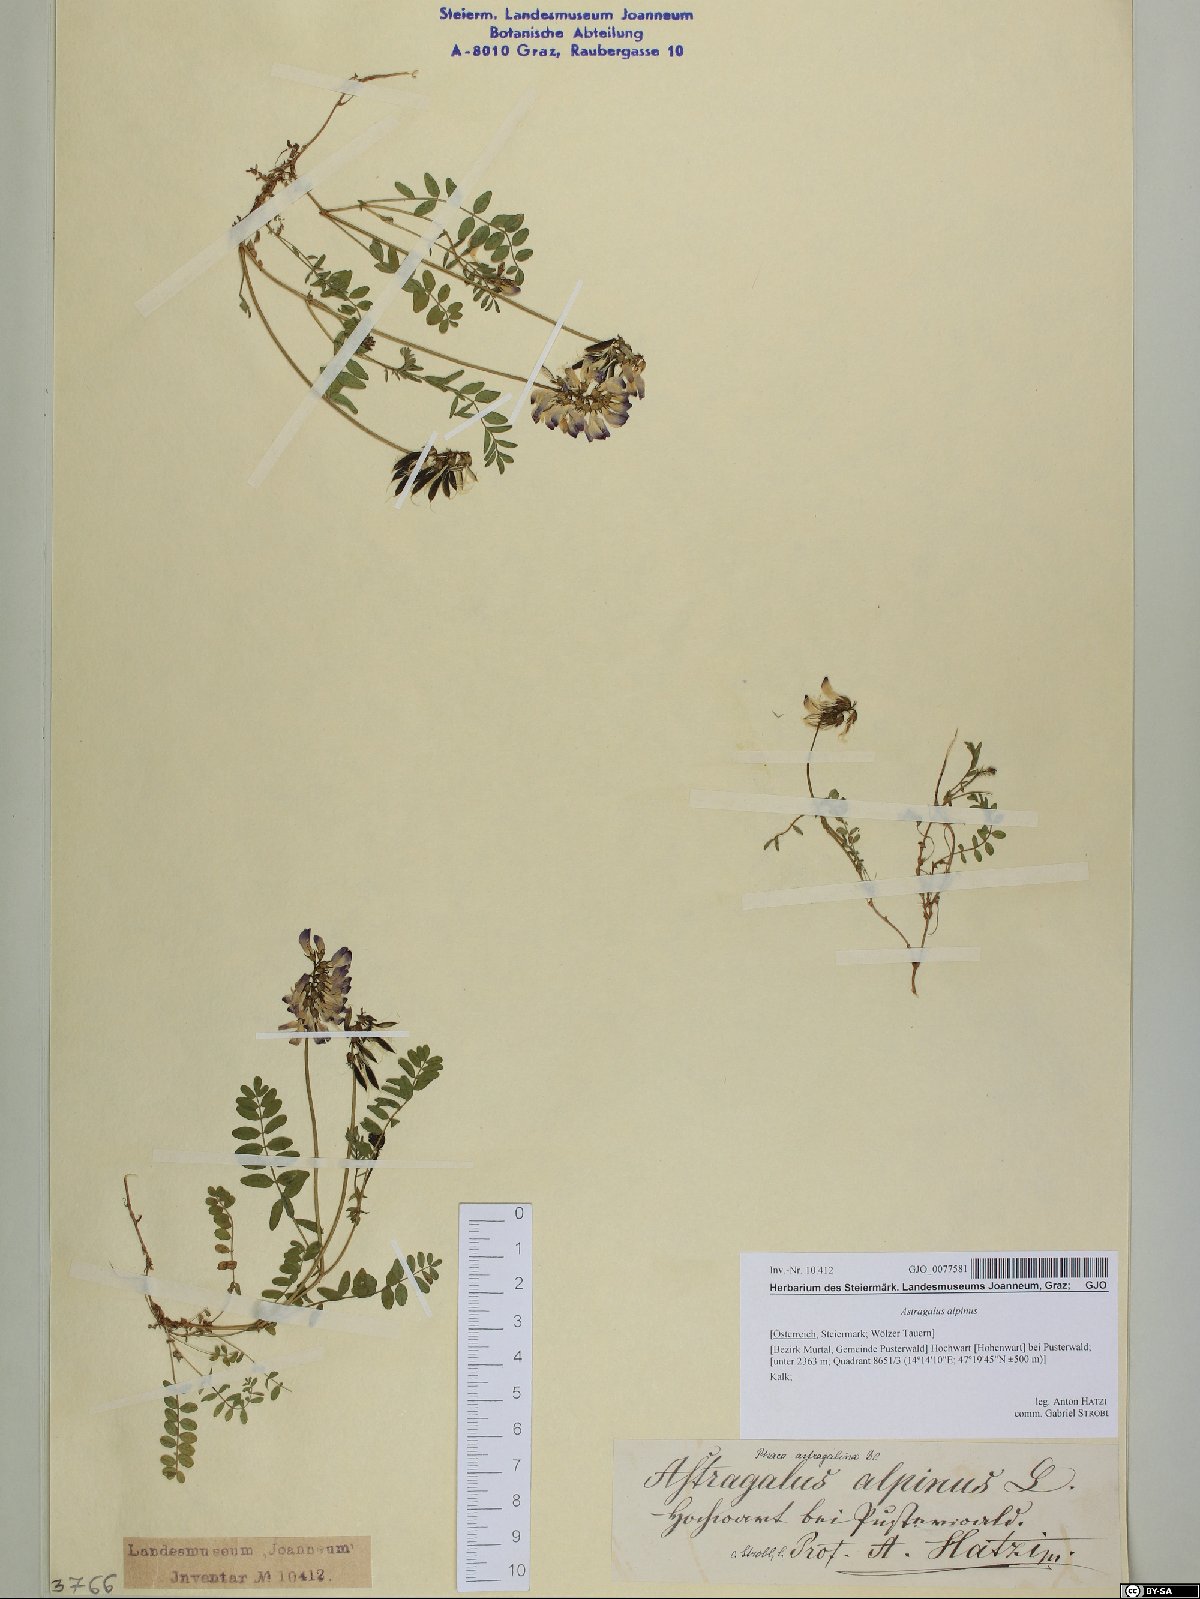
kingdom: Plantae
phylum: Tracheophyta
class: Magnoliopsida
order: Fabales
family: Fabaceae
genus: Astragalus
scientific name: Astragalus alpinus
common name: Alpine milk-vetch
